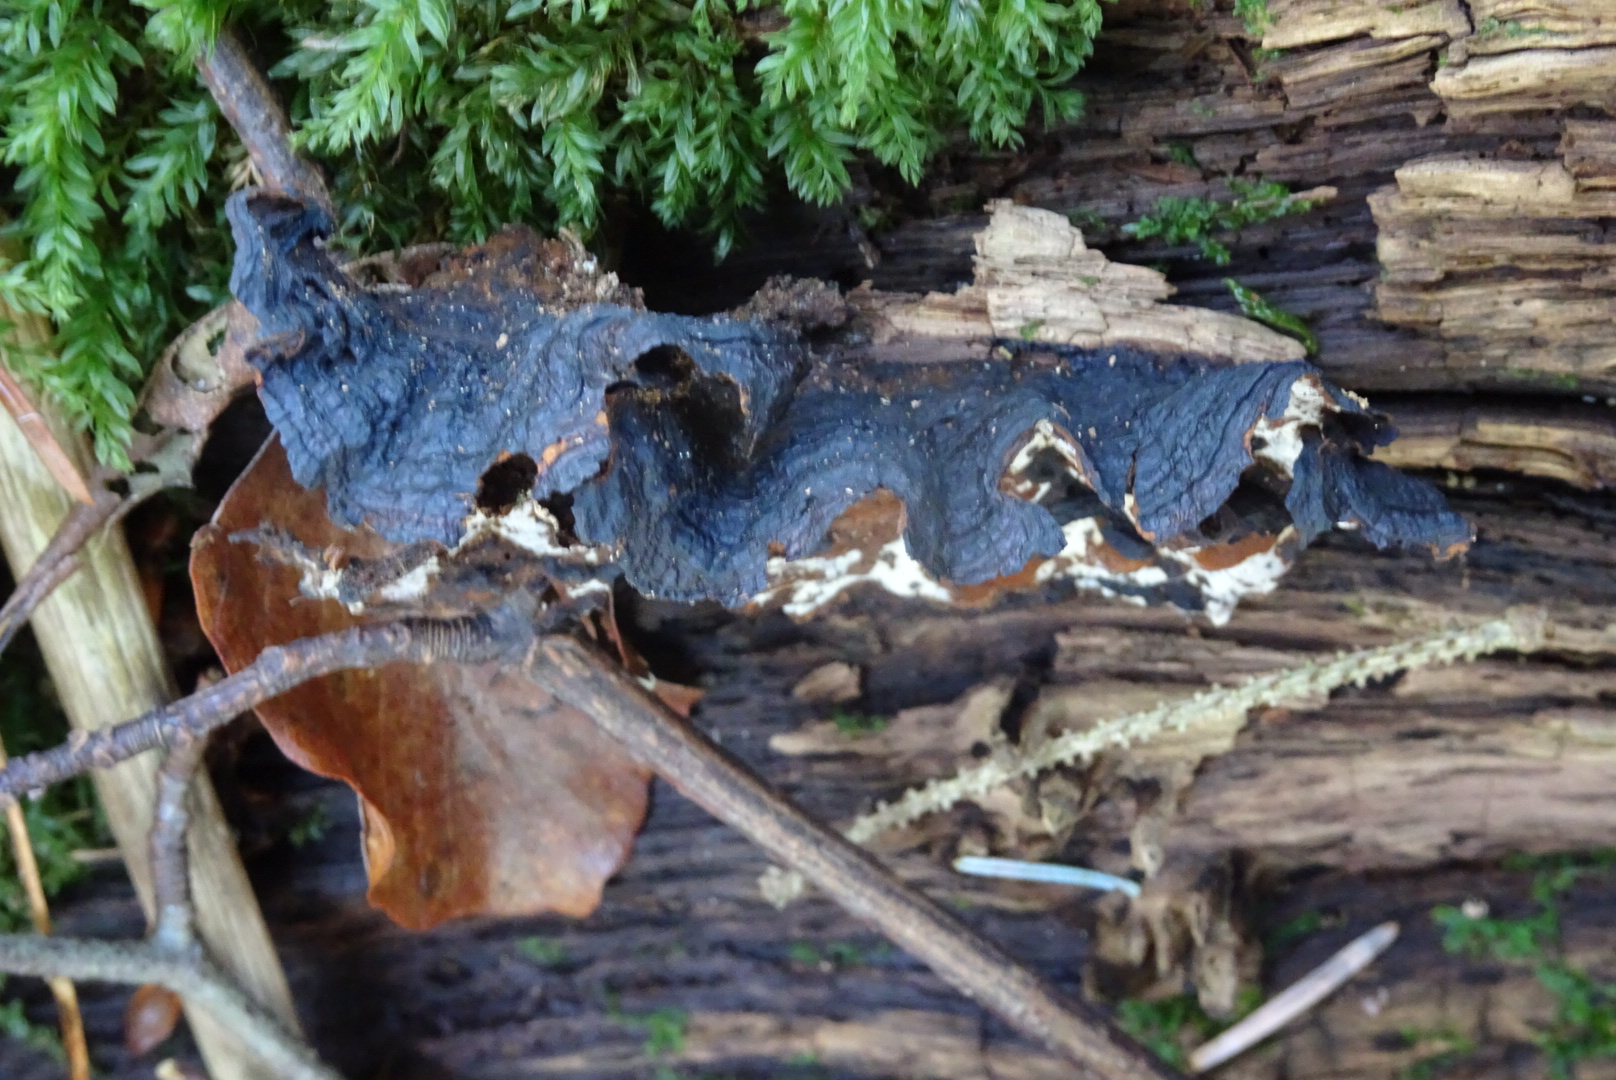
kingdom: Fungi
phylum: Basidiomycota
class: Agaricomycetes
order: Hymenochaetales
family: Hymenochaetaceae
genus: Hymenochaete
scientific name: Hymenochaete rubiginosa
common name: stiv ruslædersvamp
